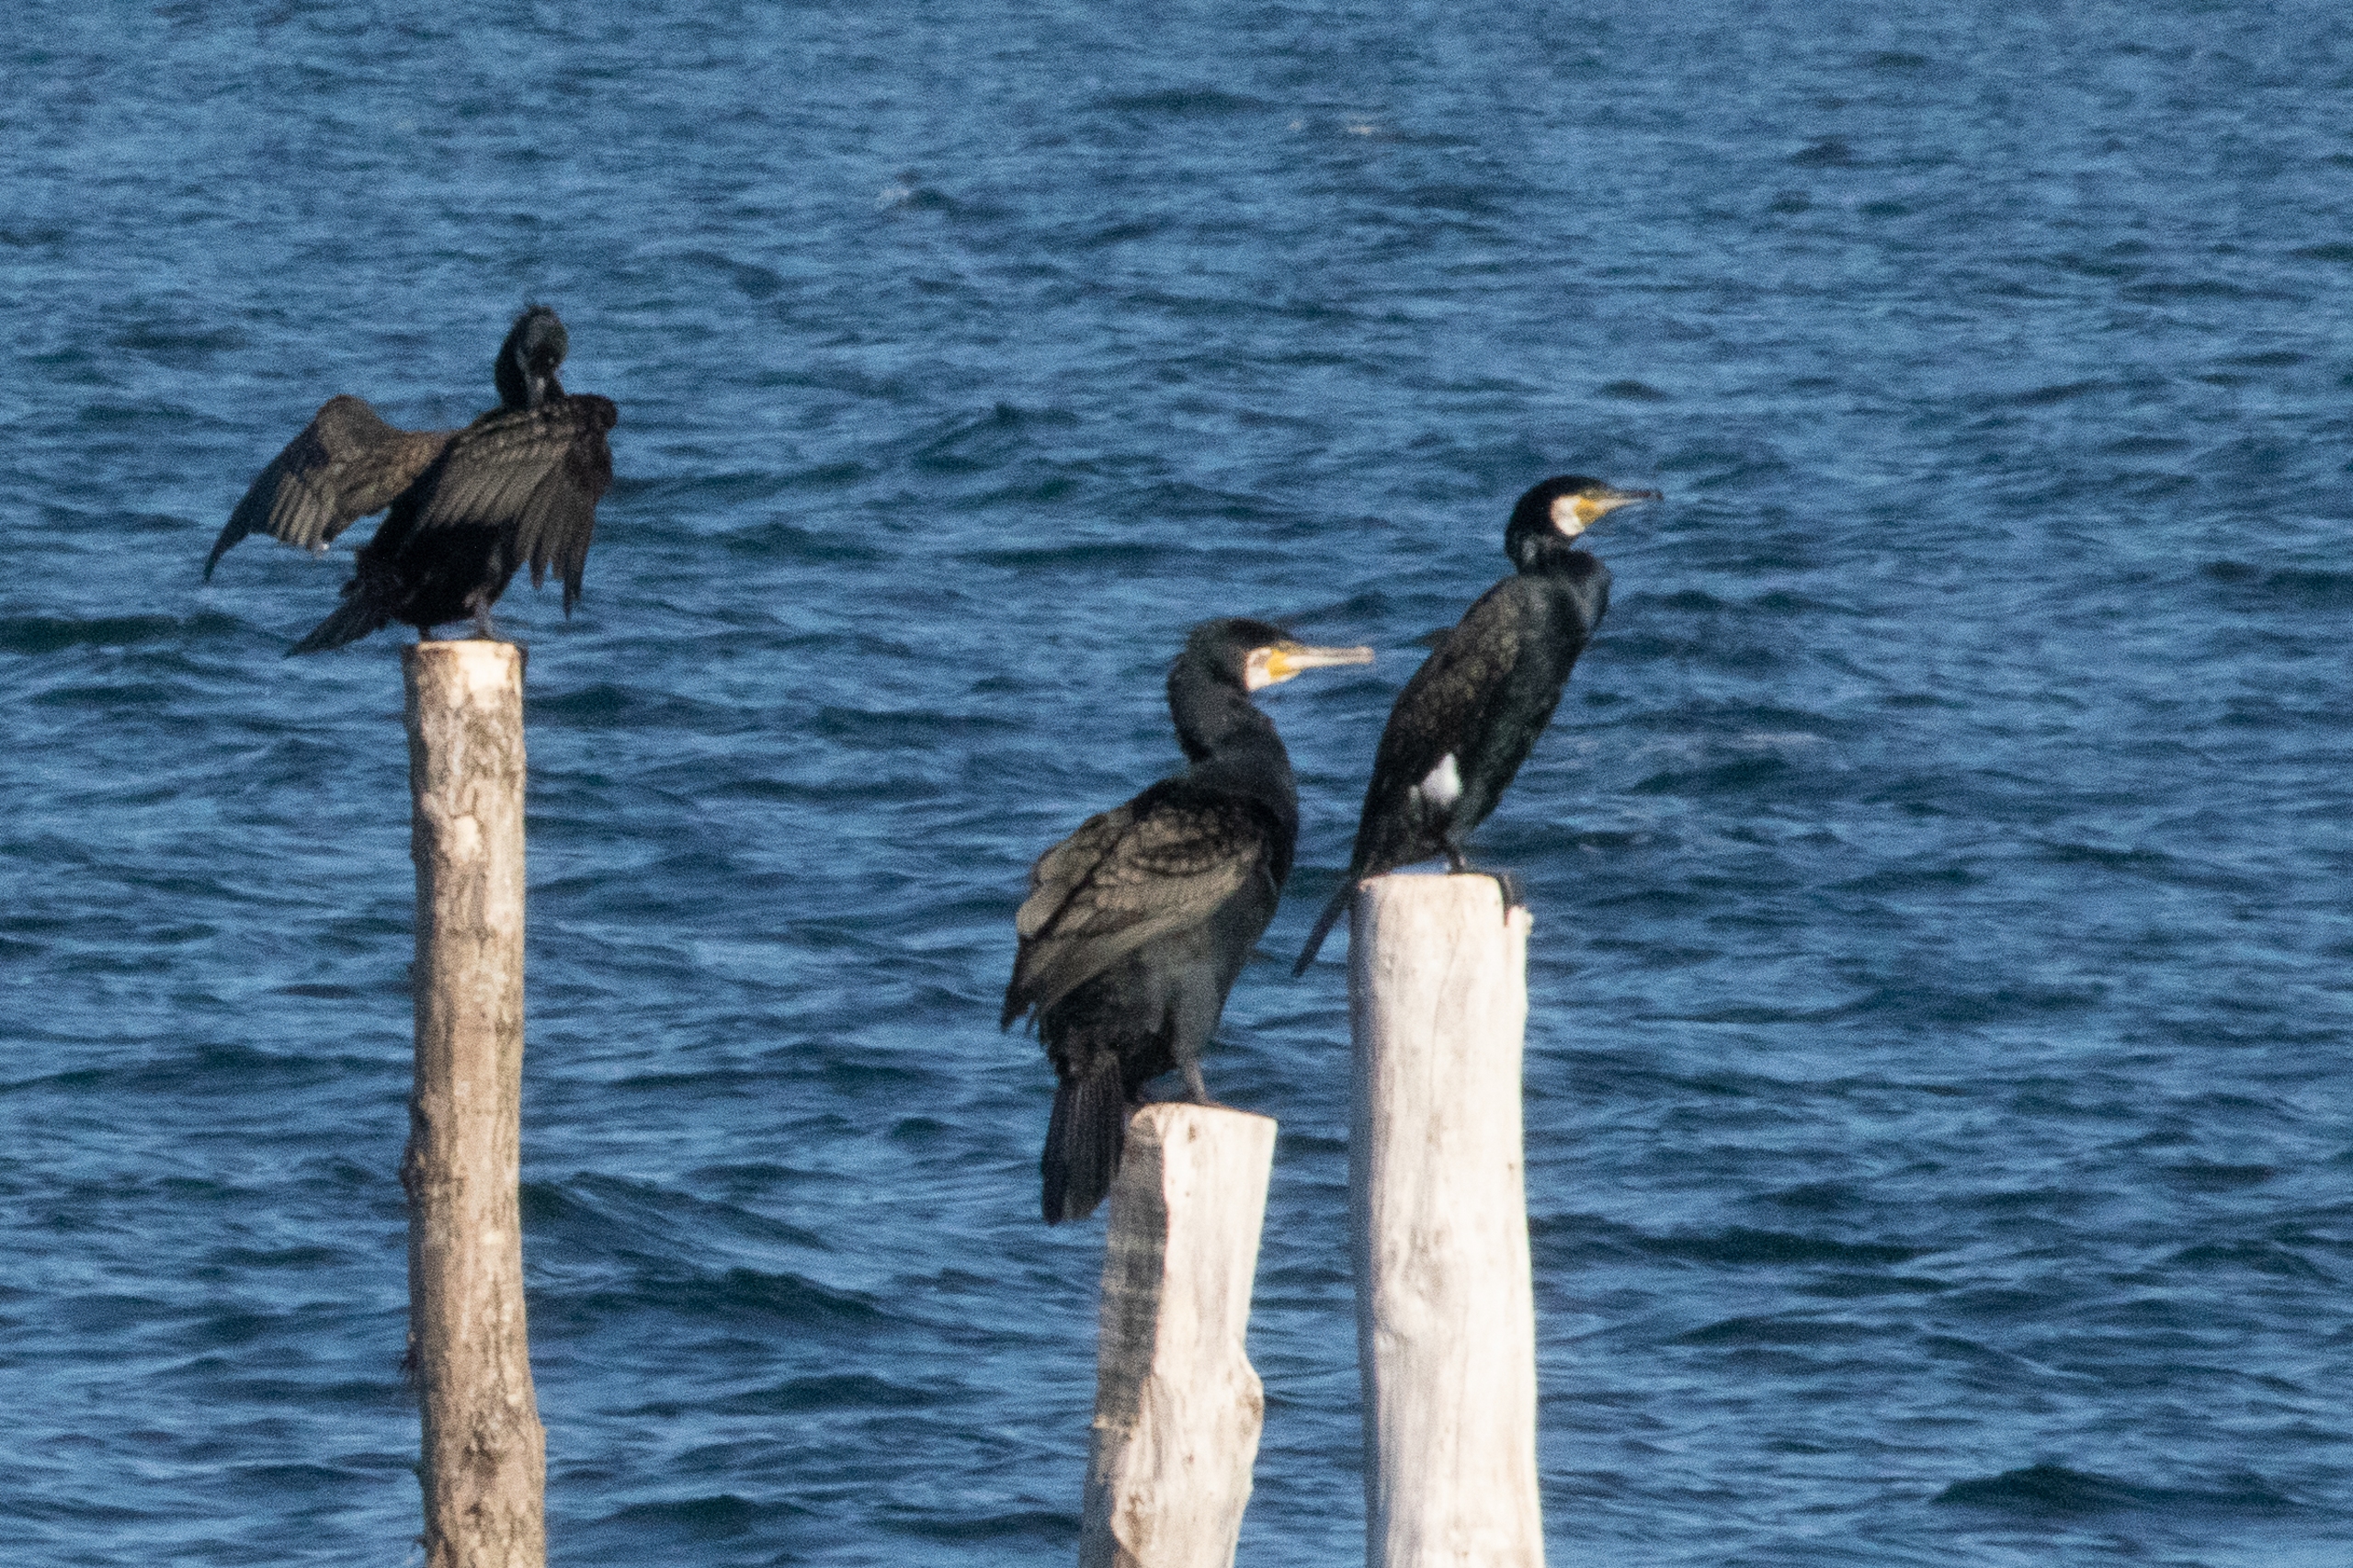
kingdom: Animalia
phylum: Chordata
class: Aves
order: Suliformes
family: Phalacrocoracidae
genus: Phalacrocorax
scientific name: Phalacrocorax carbo
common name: Skarv
